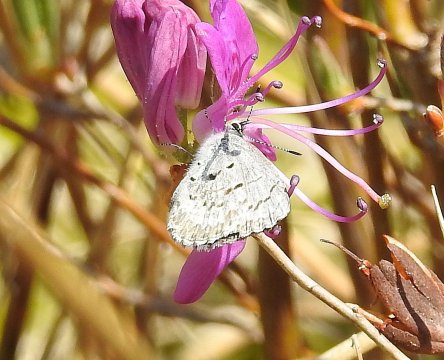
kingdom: Animalia
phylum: Arthropoda
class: Insecta
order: Lepidoptera
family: Lycaenidae
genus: Celastrina
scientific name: Celastrina lucia
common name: Northern Spring Azure
